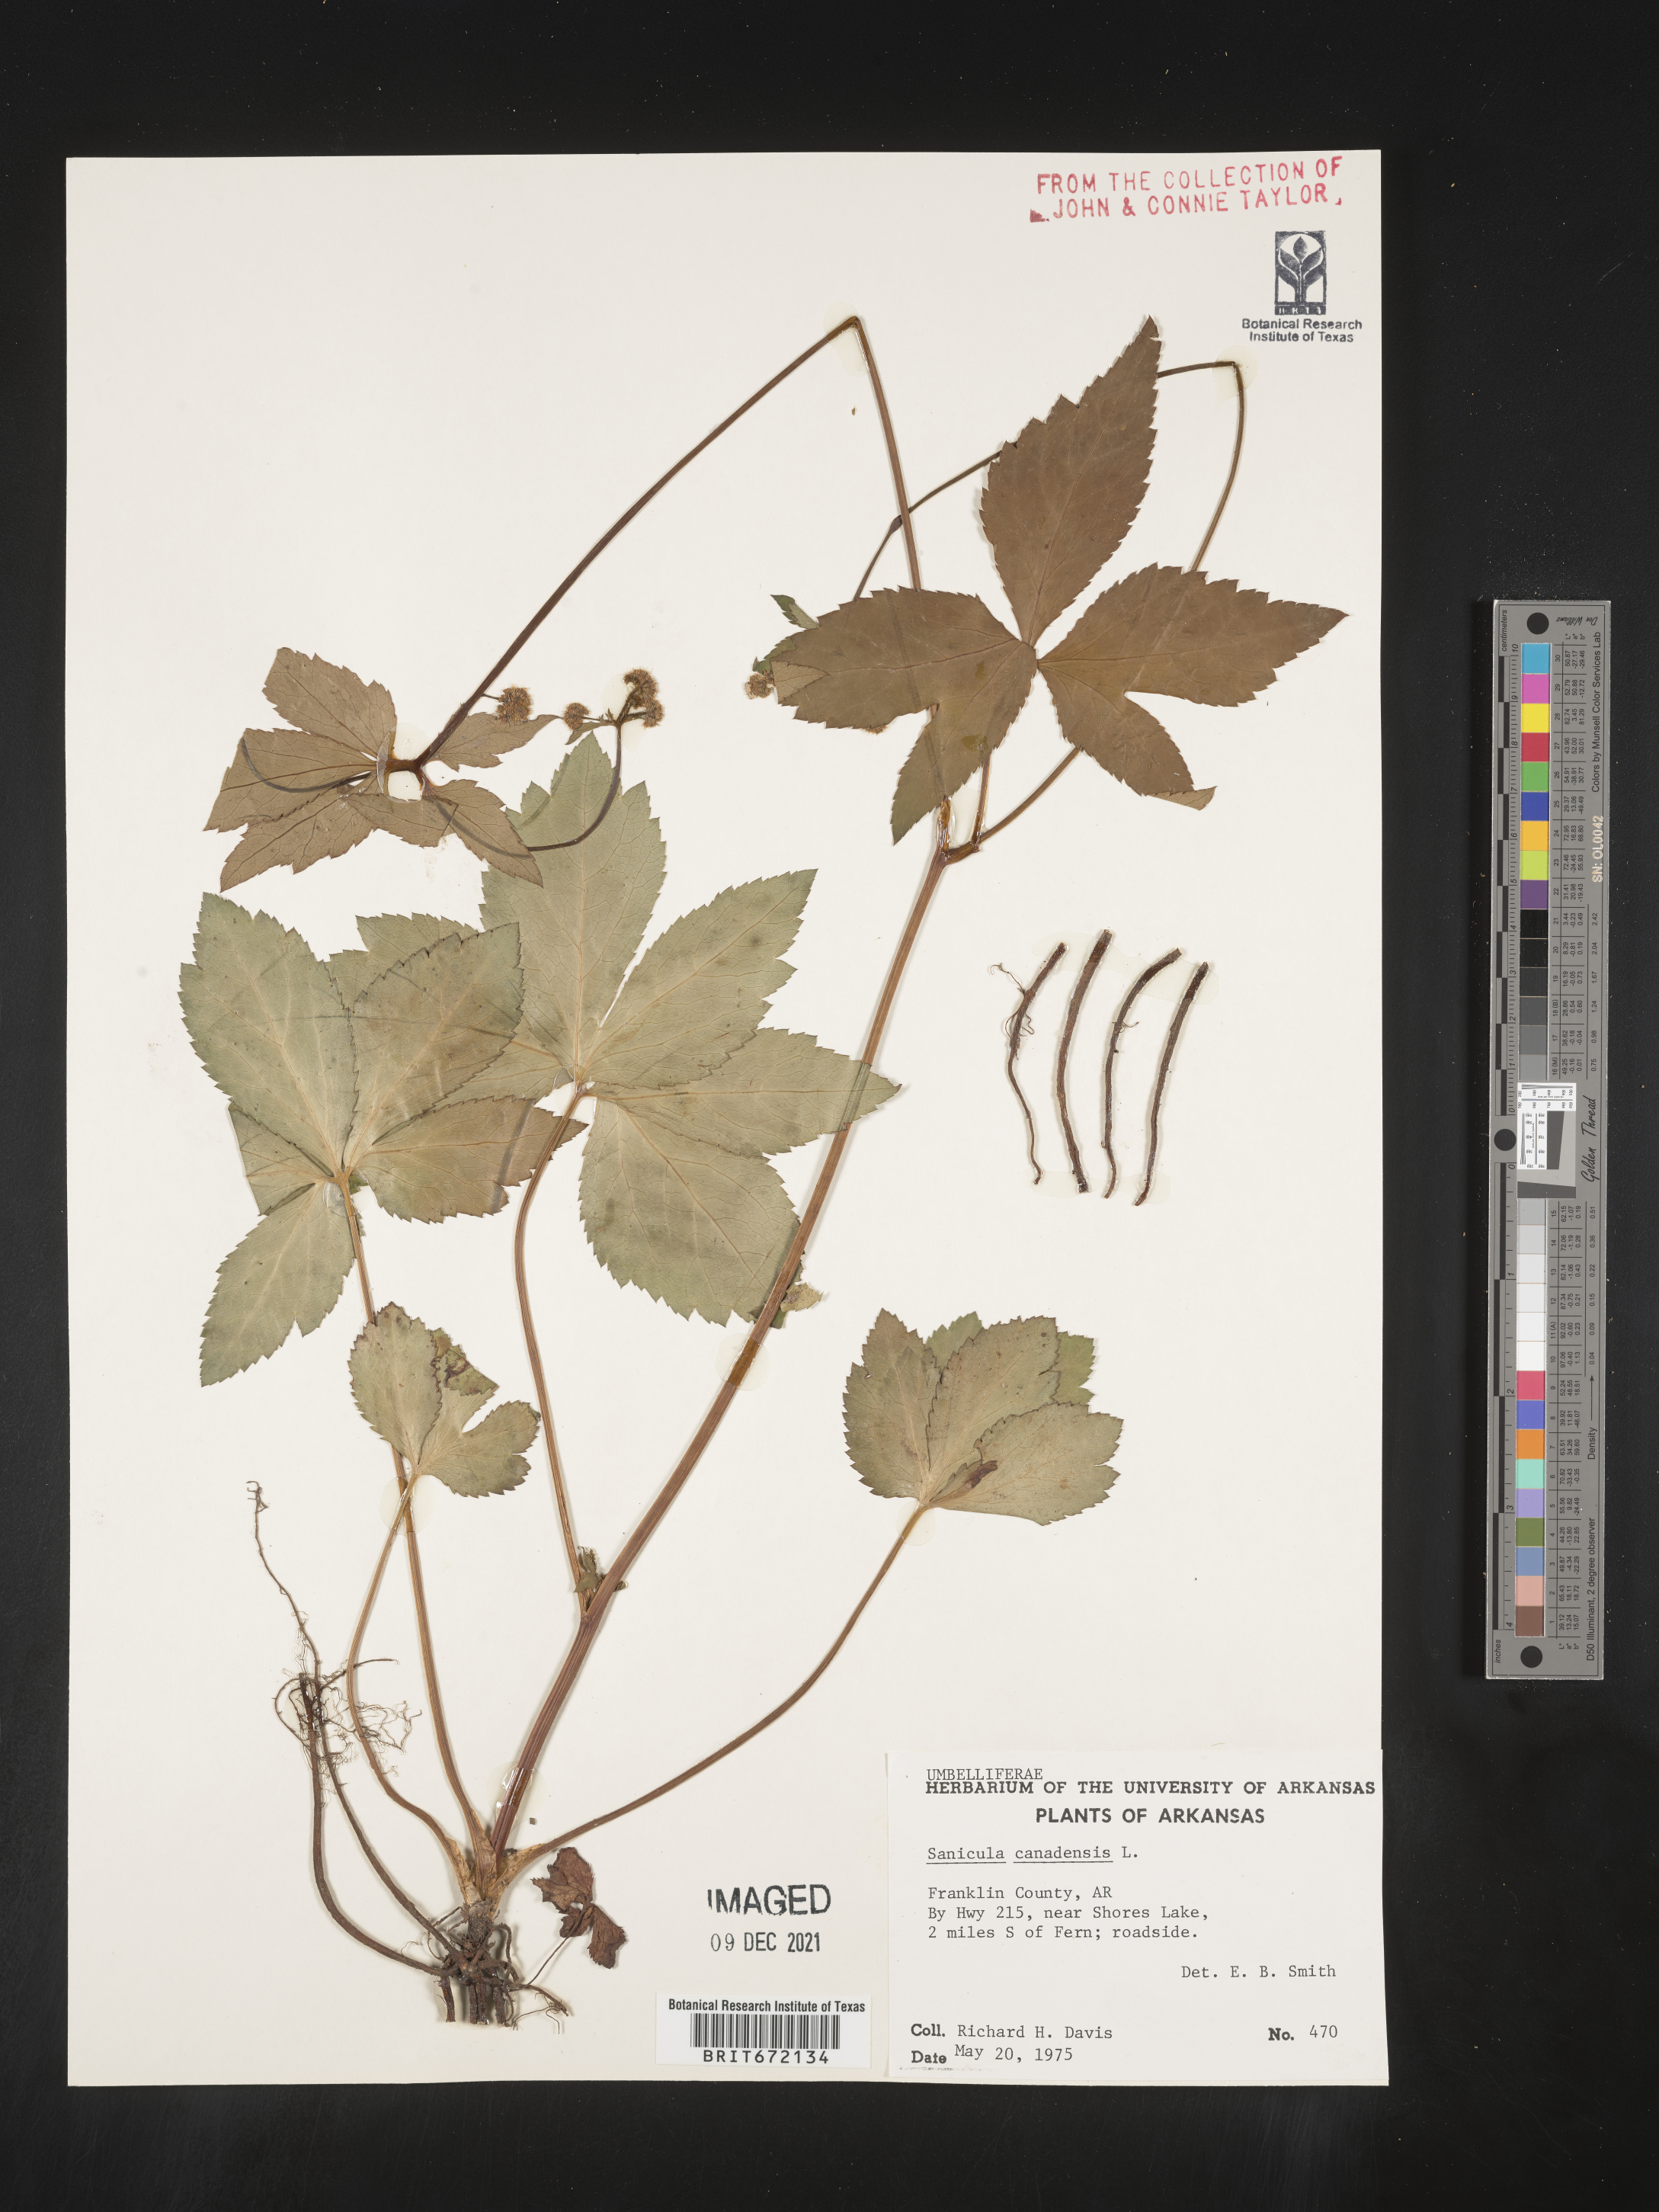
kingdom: Plantae
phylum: Tracheophyta
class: Magnoliopsida
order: Apiales
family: Apiaceae
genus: Sanicula
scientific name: Sanicula canadensis
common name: Canada sanicle
